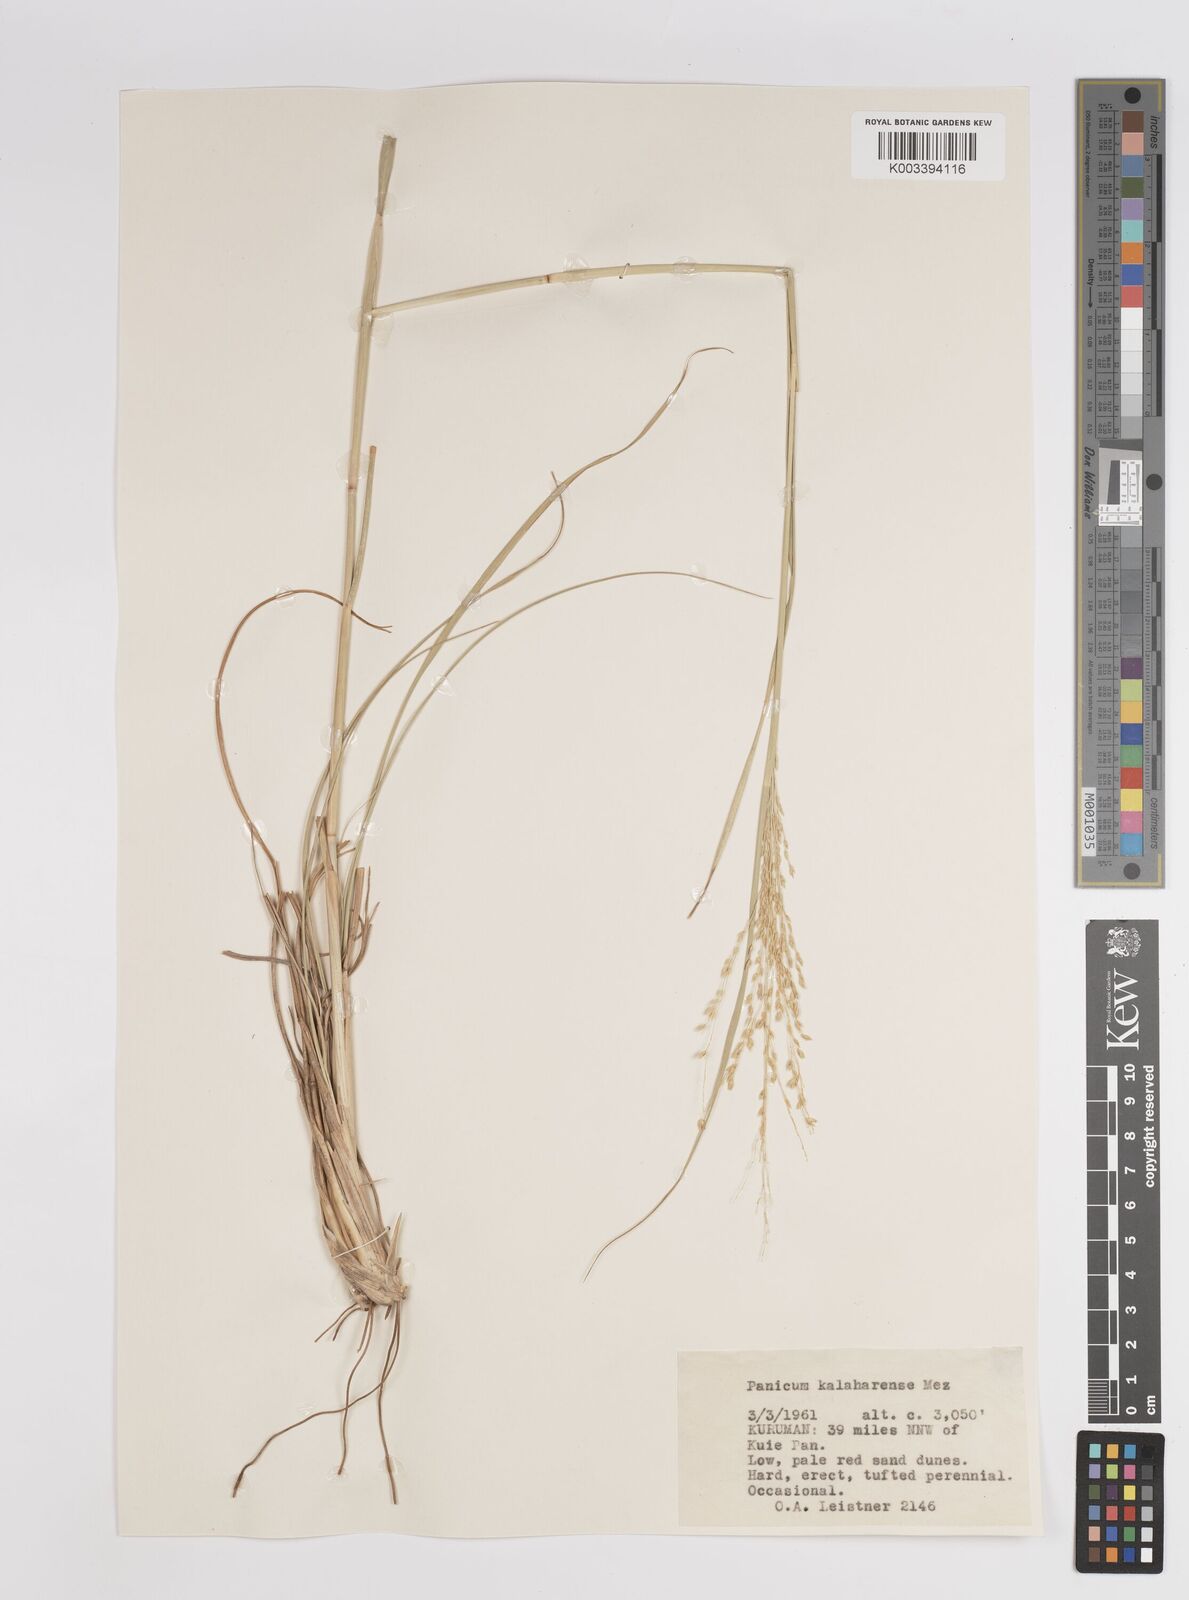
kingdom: Plantae
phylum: Tracheophyta
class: Liliopsida
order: Poales
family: Poaceae
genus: Panicum
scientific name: Panicum kalaharense
